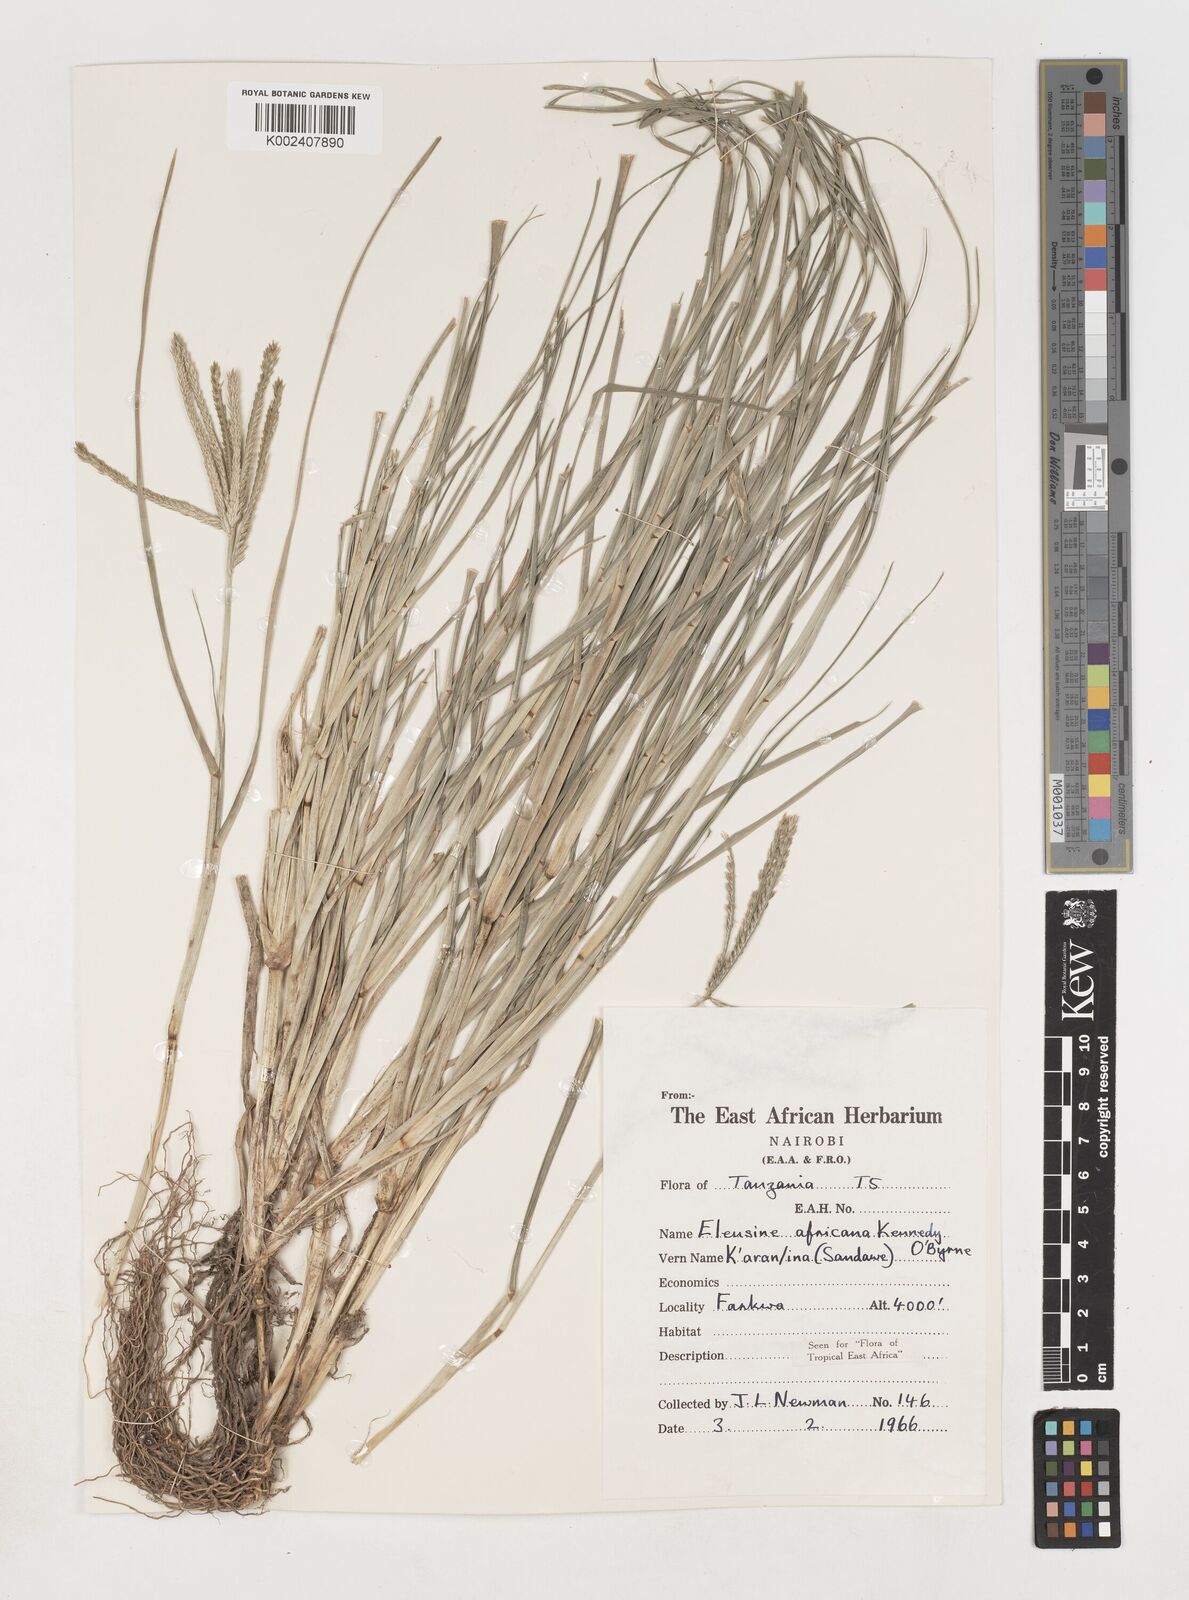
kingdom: Plantae
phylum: Tracheophyta
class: Liliopsida
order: Poales
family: Poaceae
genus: Eleusine
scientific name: Eleusine africana
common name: Wild african finger millet
